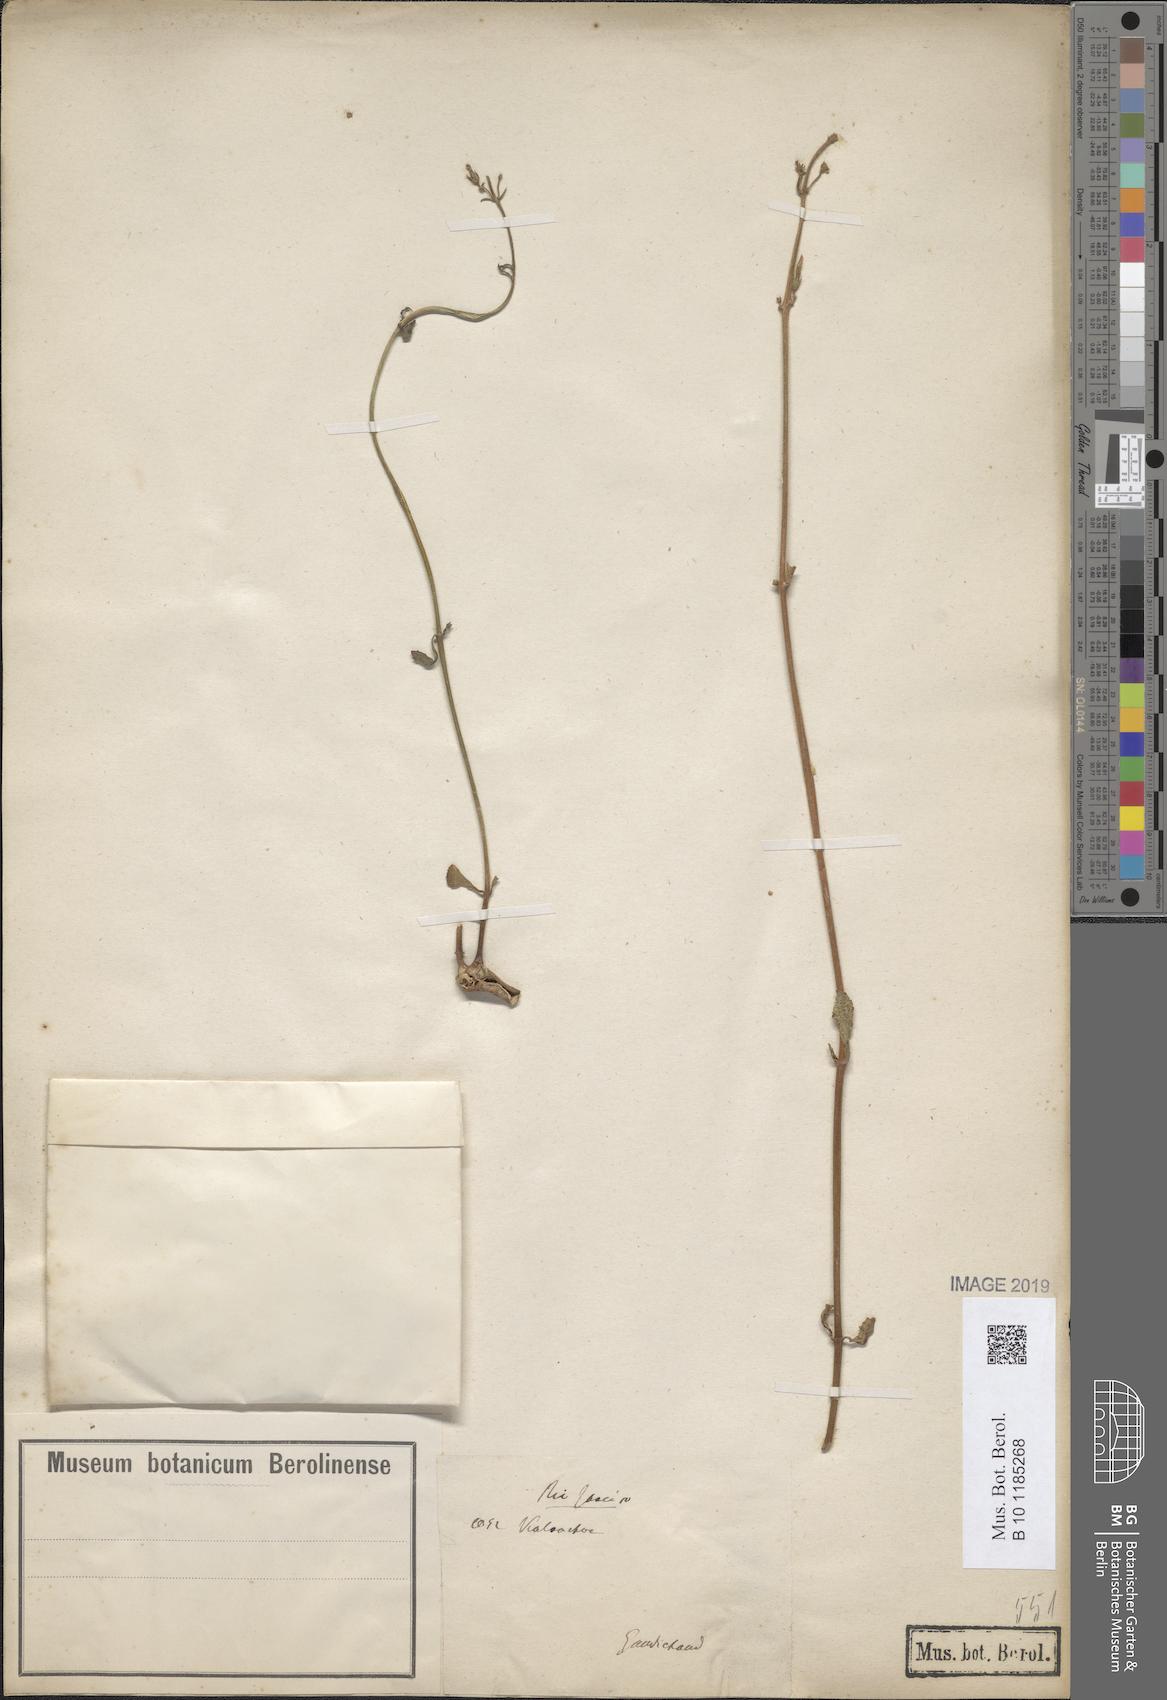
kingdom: Plantae
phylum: Tracheophyta
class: Magnoliopsida
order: Saxifragales
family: Crassulaceae
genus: Kalanchoe
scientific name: Kalanchoe
